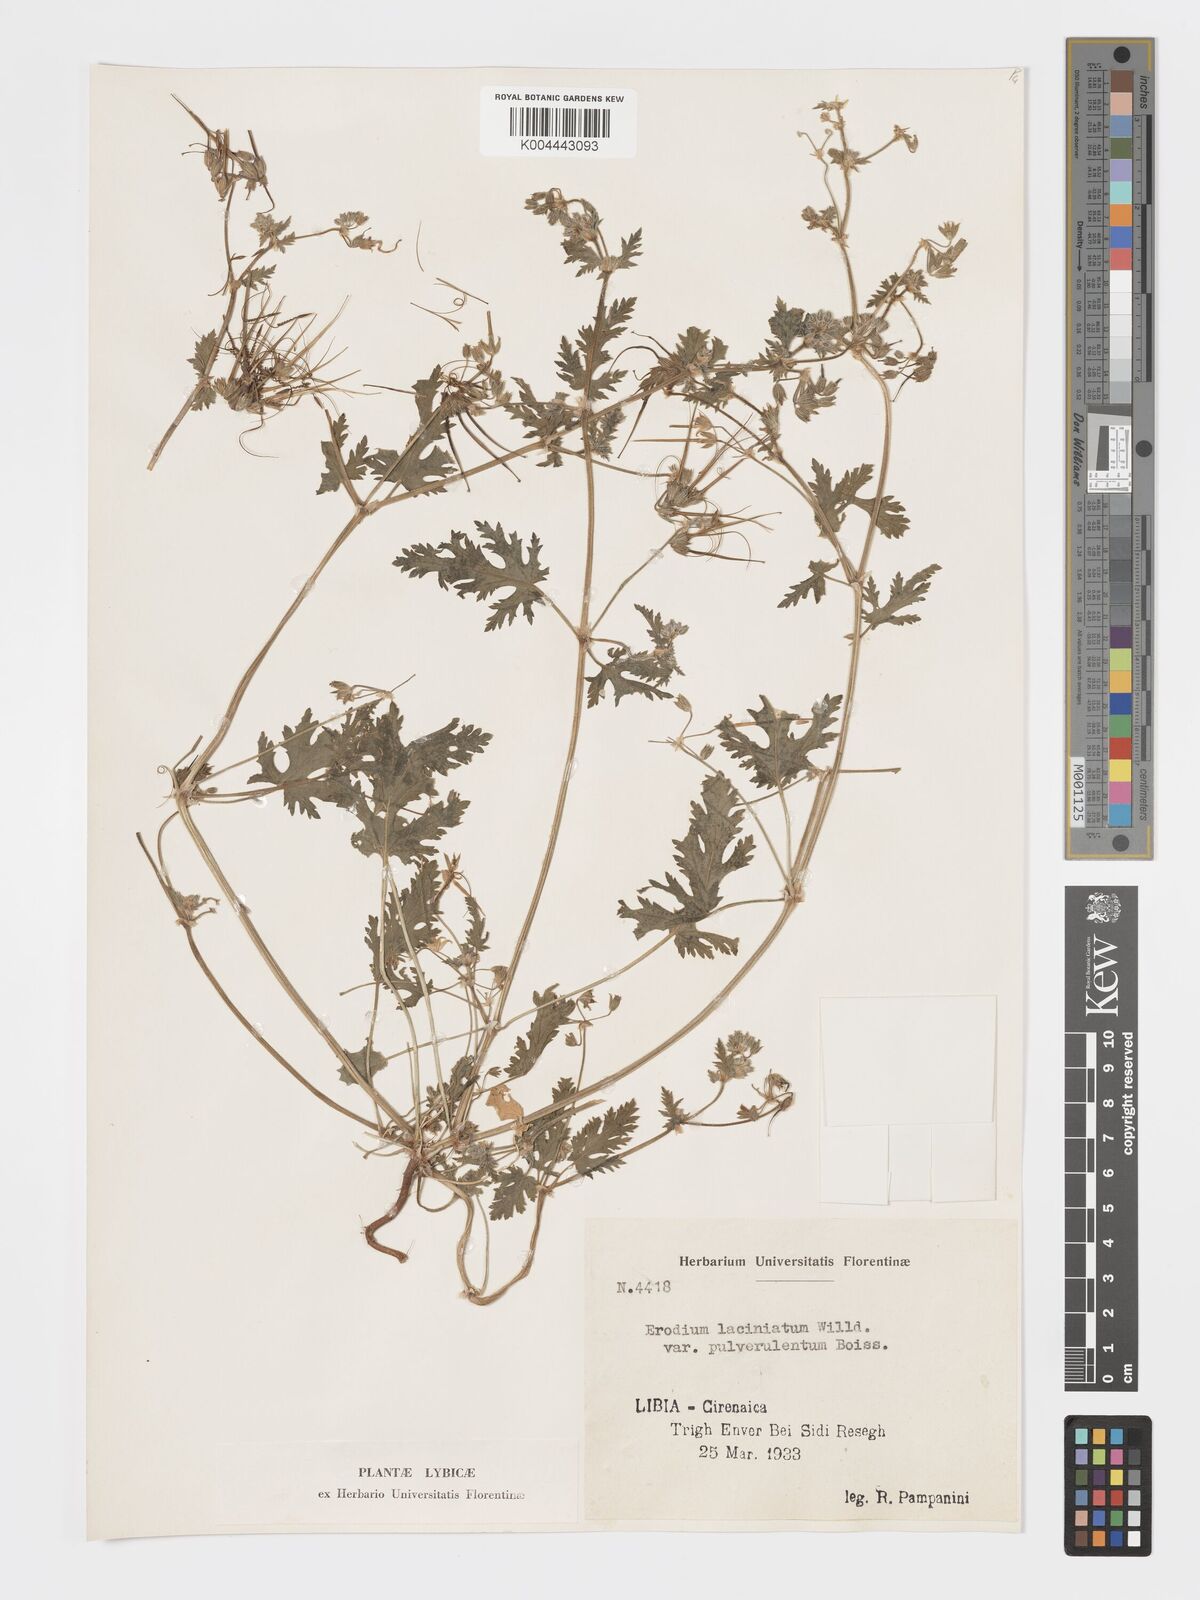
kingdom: Plantae
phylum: Tracheophyta
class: Magnoliopsida
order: Geraniales
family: Geraniaceae
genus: Erodium
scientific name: Erodium laciniatum
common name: Cutleaf stork's bill
